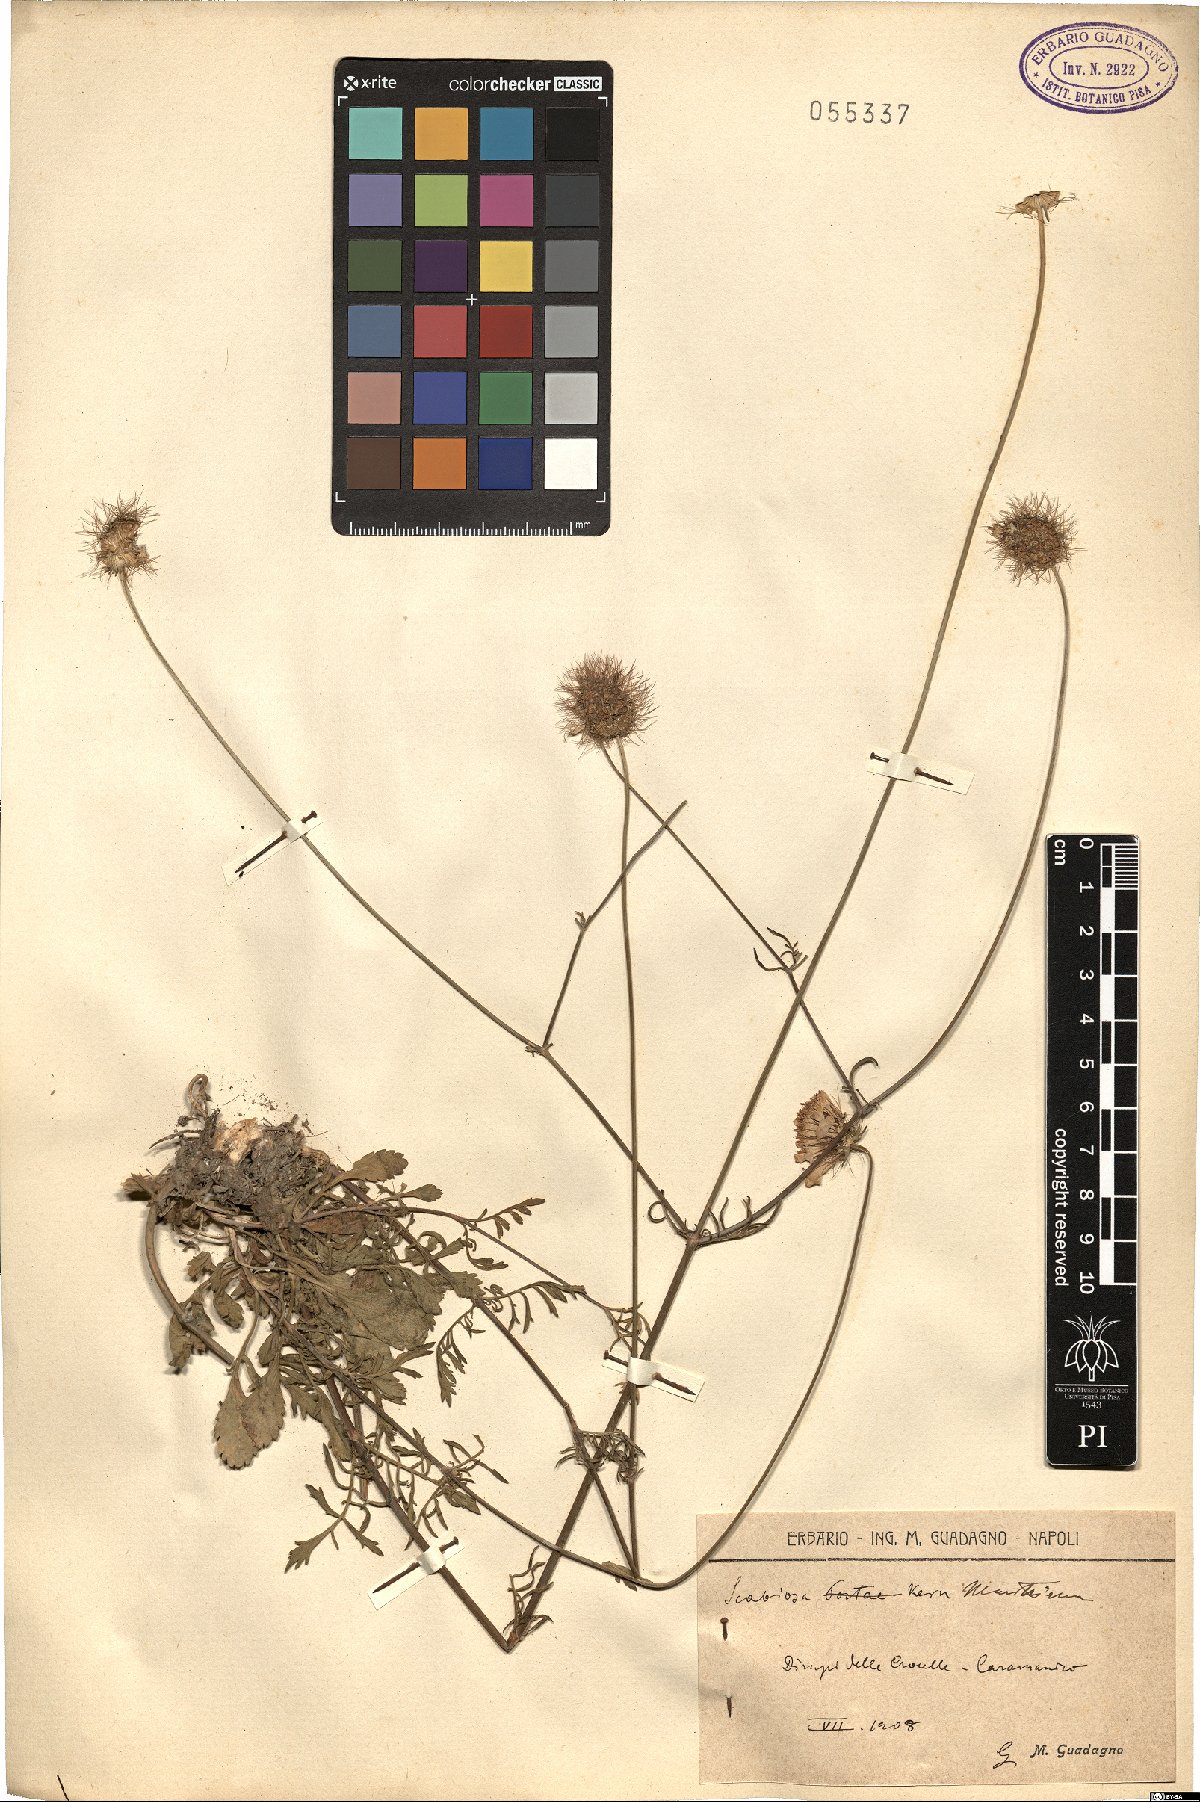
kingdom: Plantae
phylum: Tracheophyta
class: Magnoliopsida
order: Dipsacales
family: Caprifoliaceae
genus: Sixalix
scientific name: Sixalix maritima
